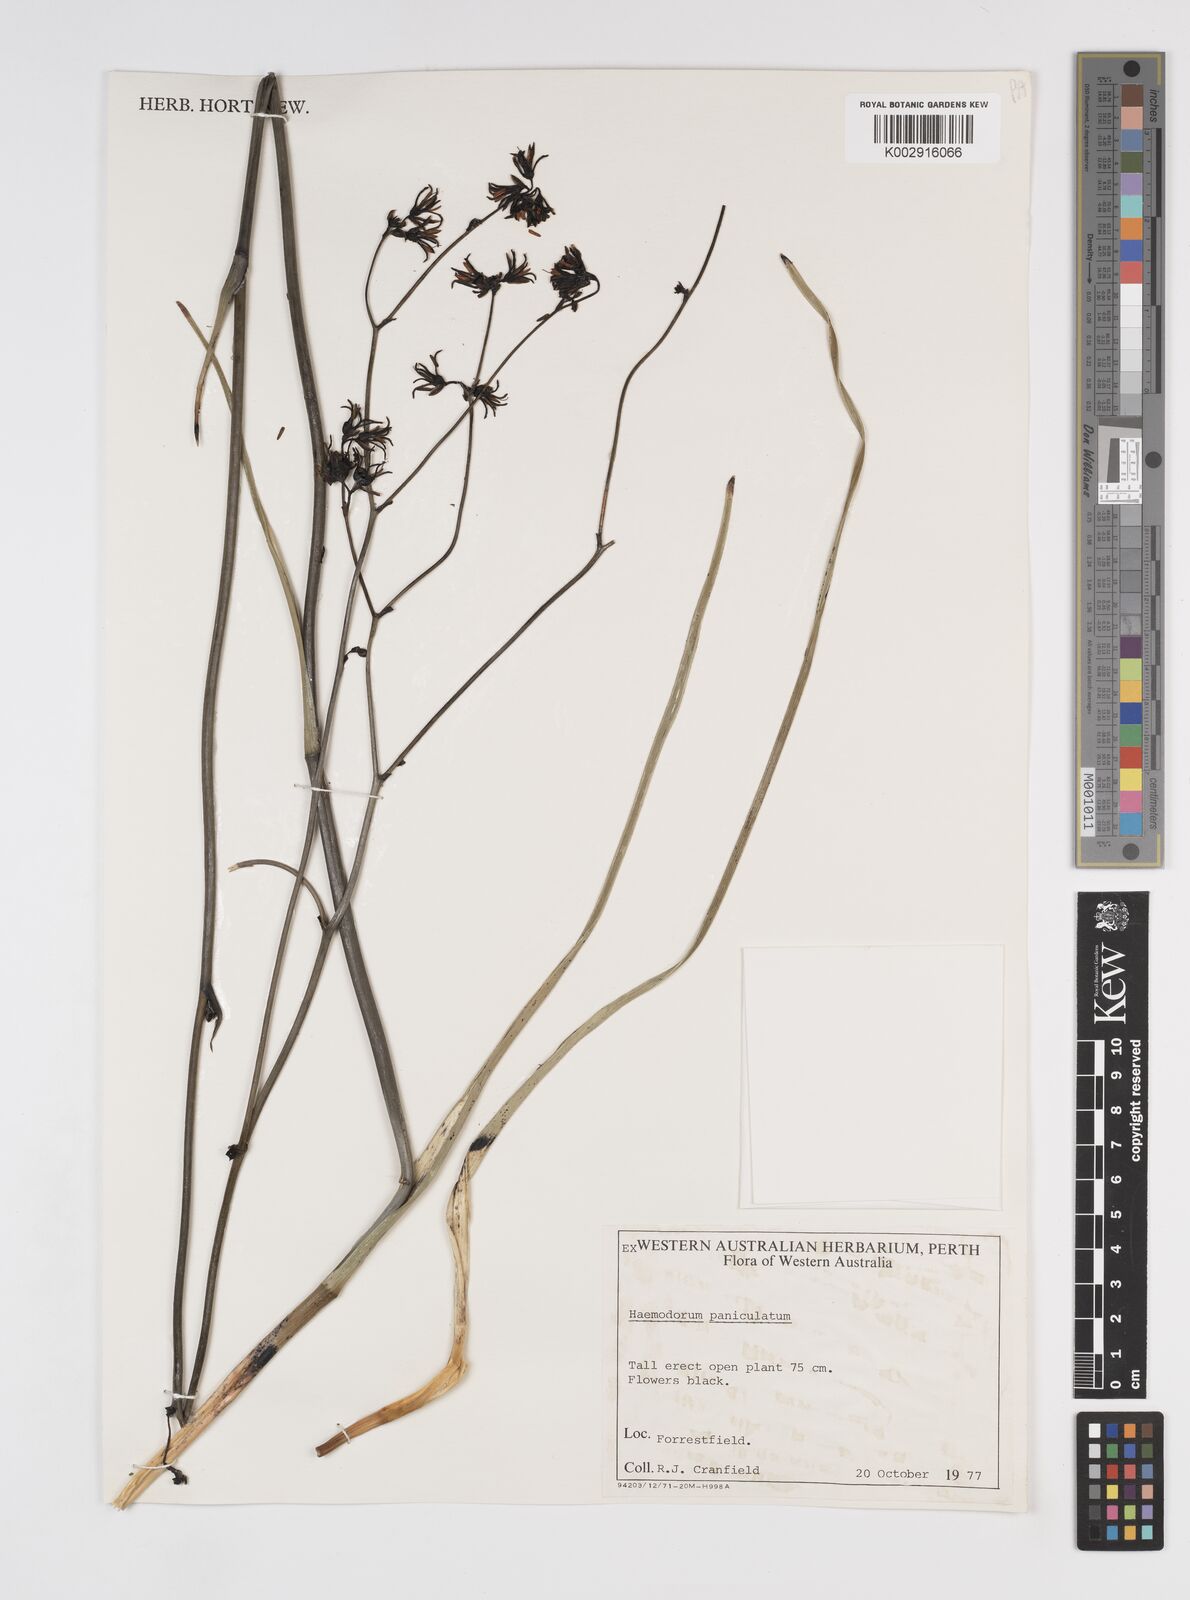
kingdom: Plantae
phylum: Tracheophyta
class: Liliopsida
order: Commelinales
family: Haemodoraceae
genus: Haemodorum
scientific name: Haemodorum paniculatum
